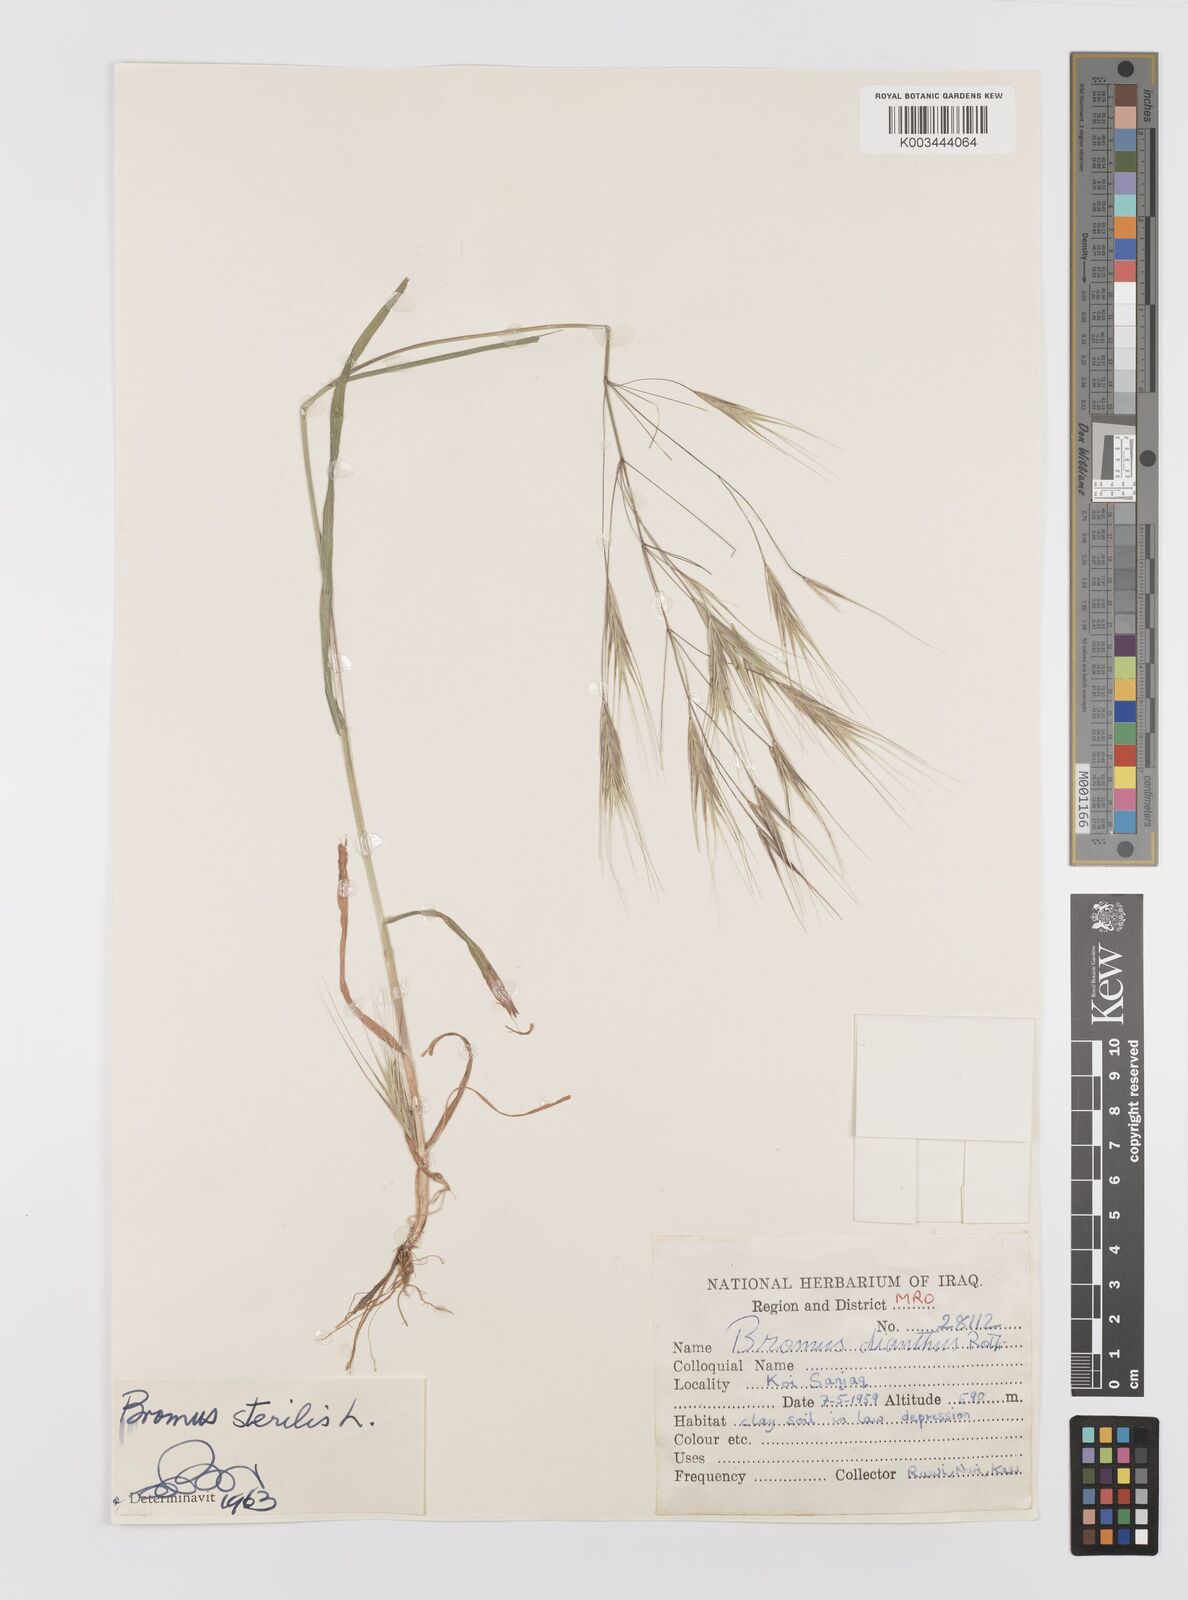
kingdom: Plantae
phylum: Tracheophyta
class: Liliopsida
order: Poales
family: Poaceae
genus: Bromus
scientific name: Bromus sterilis
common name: Poverty brome
